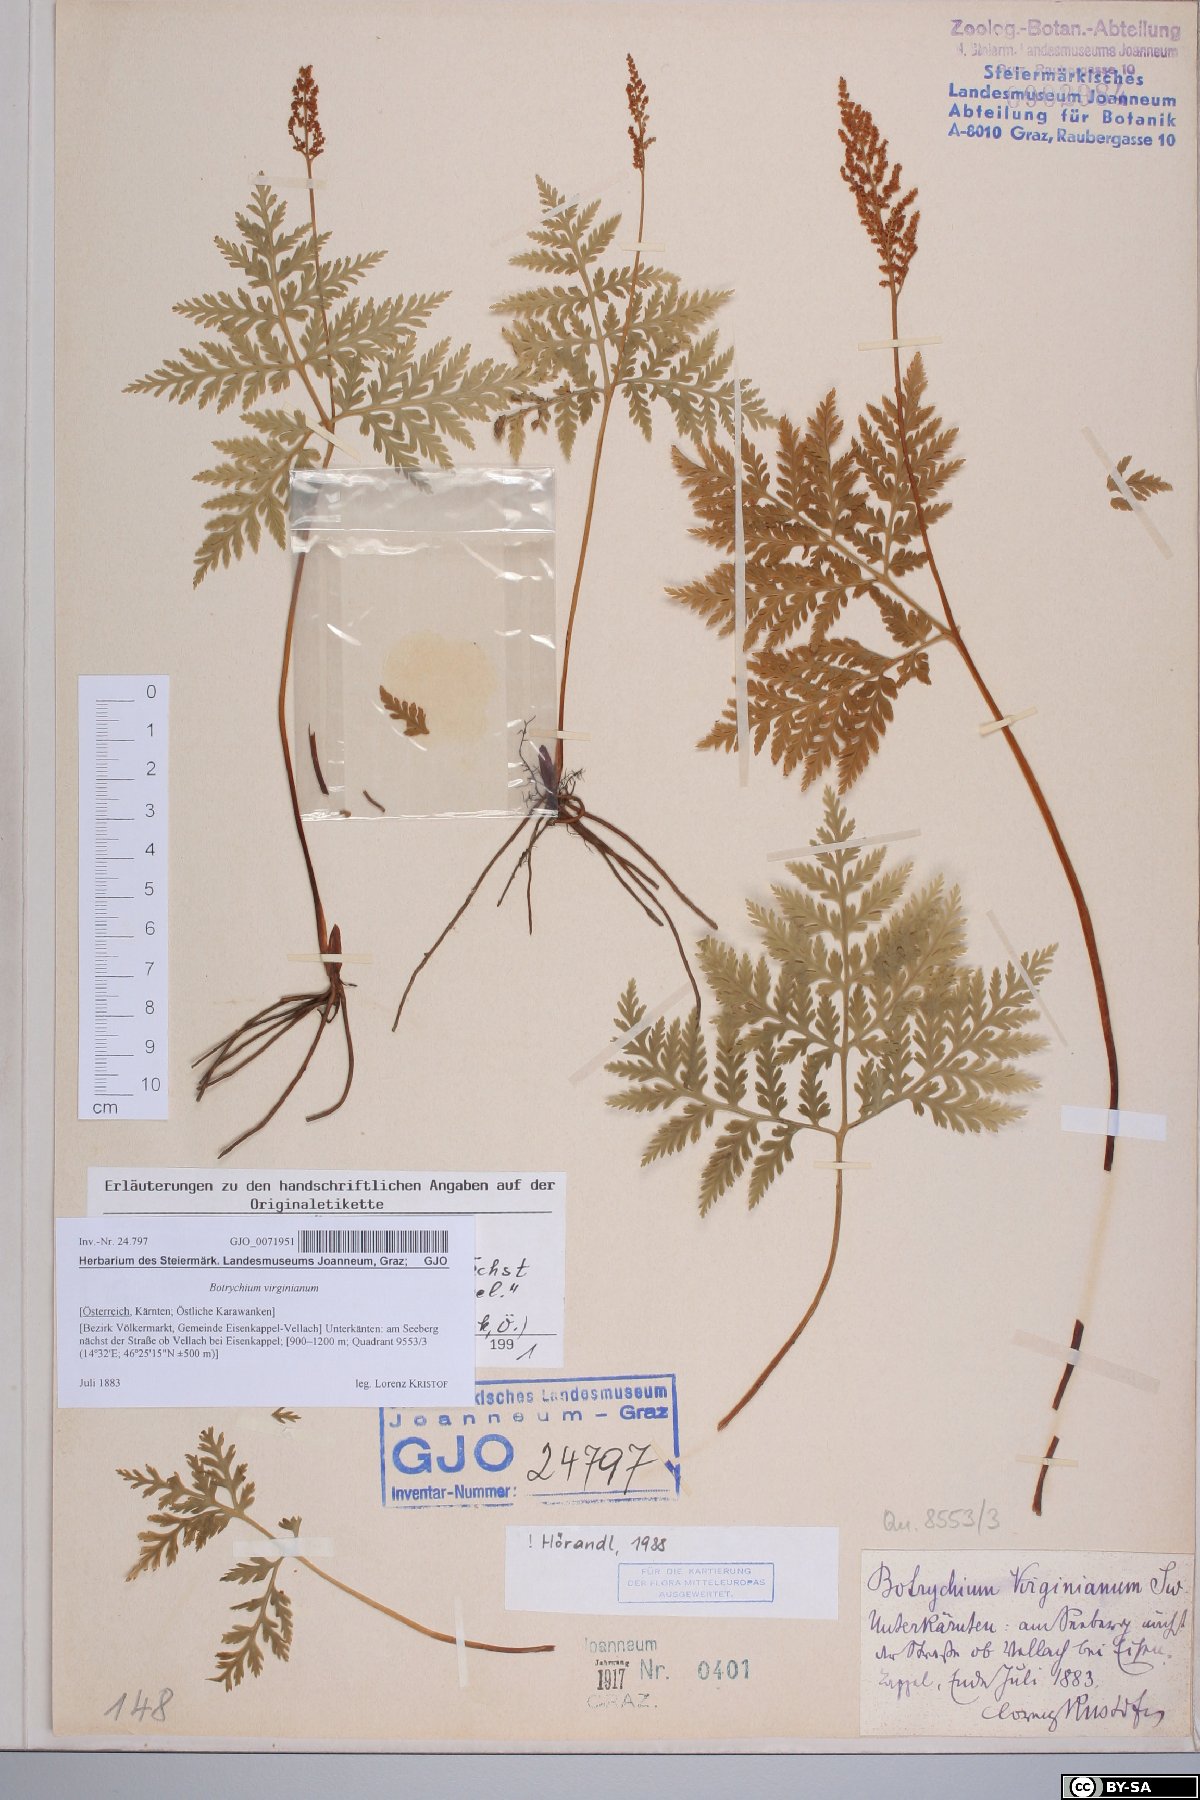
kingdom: Plantae
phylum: Tracheophyta
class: Polypodiopsida
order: Ophioglossales
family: Ophioglossaceae
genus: Botrypus
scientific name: Botrypus virginianus
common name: Common grapefern
